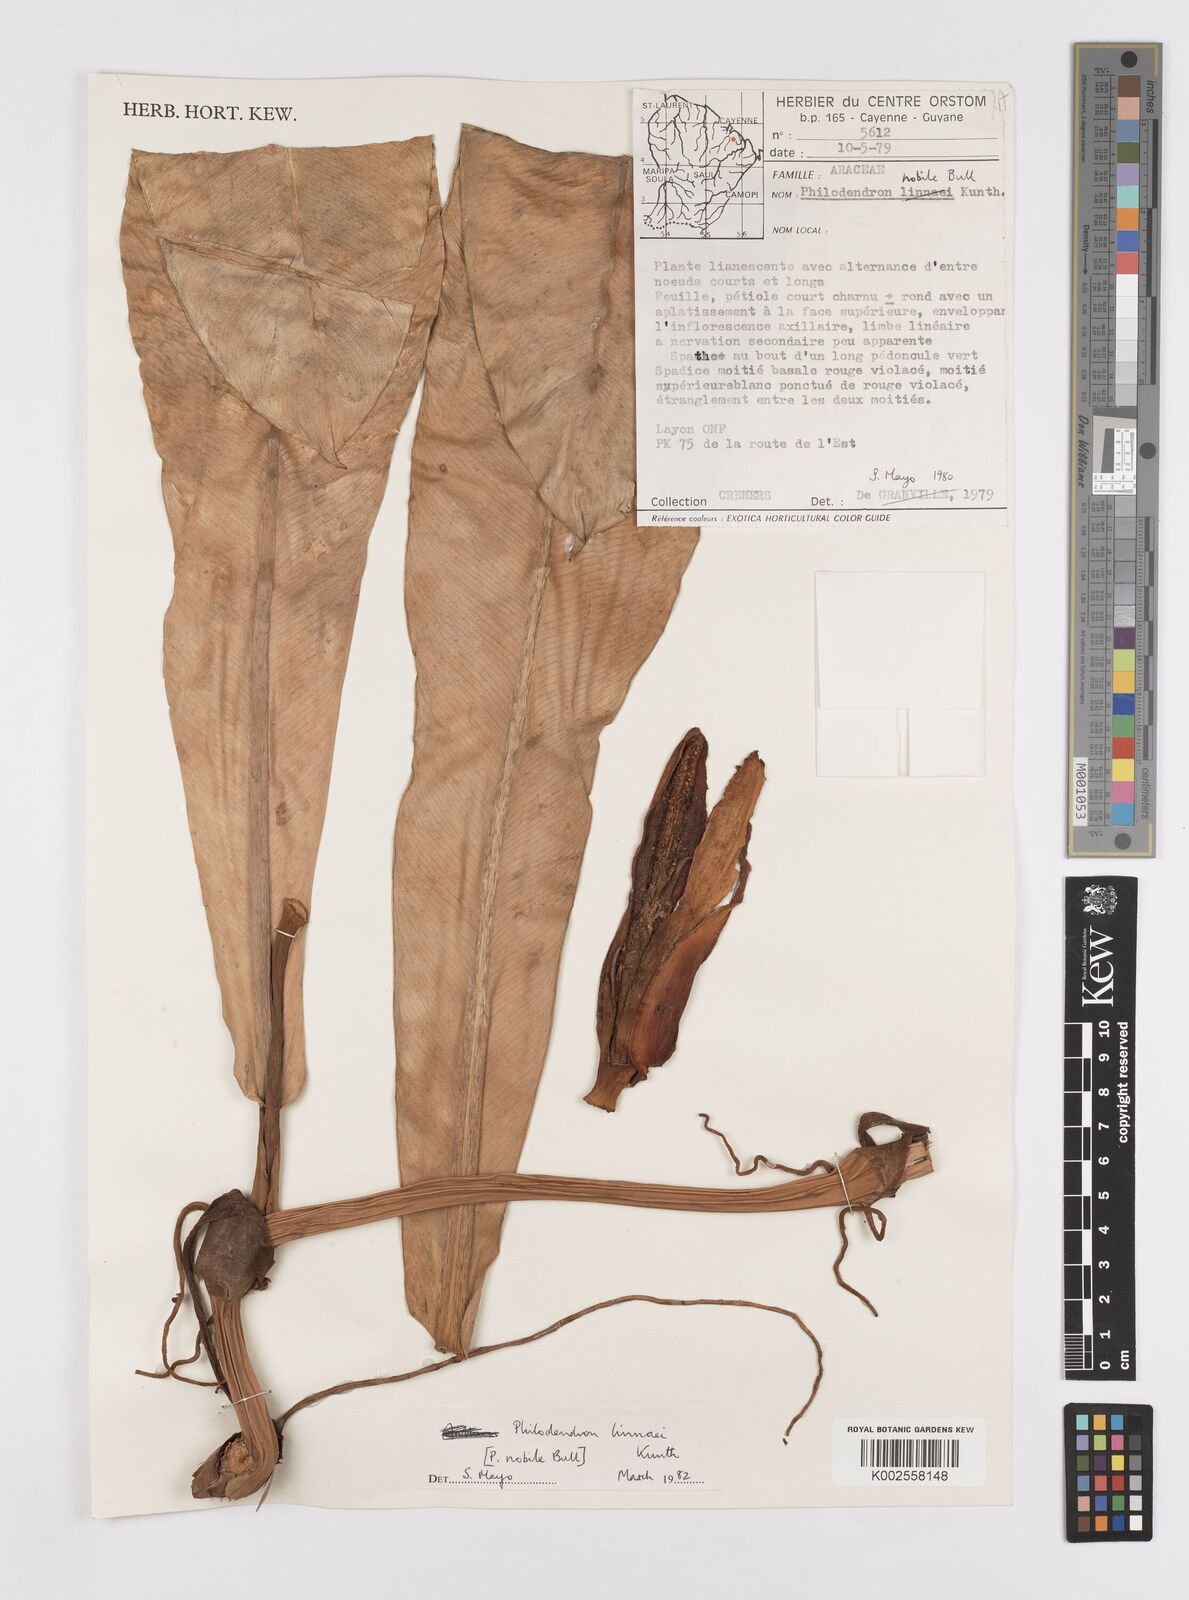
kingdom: Plantae
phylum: Tracheophyta
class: Liliopsida
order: Alismatales
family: Araceae
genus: Philodendron
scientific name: Philodendron linnaei
